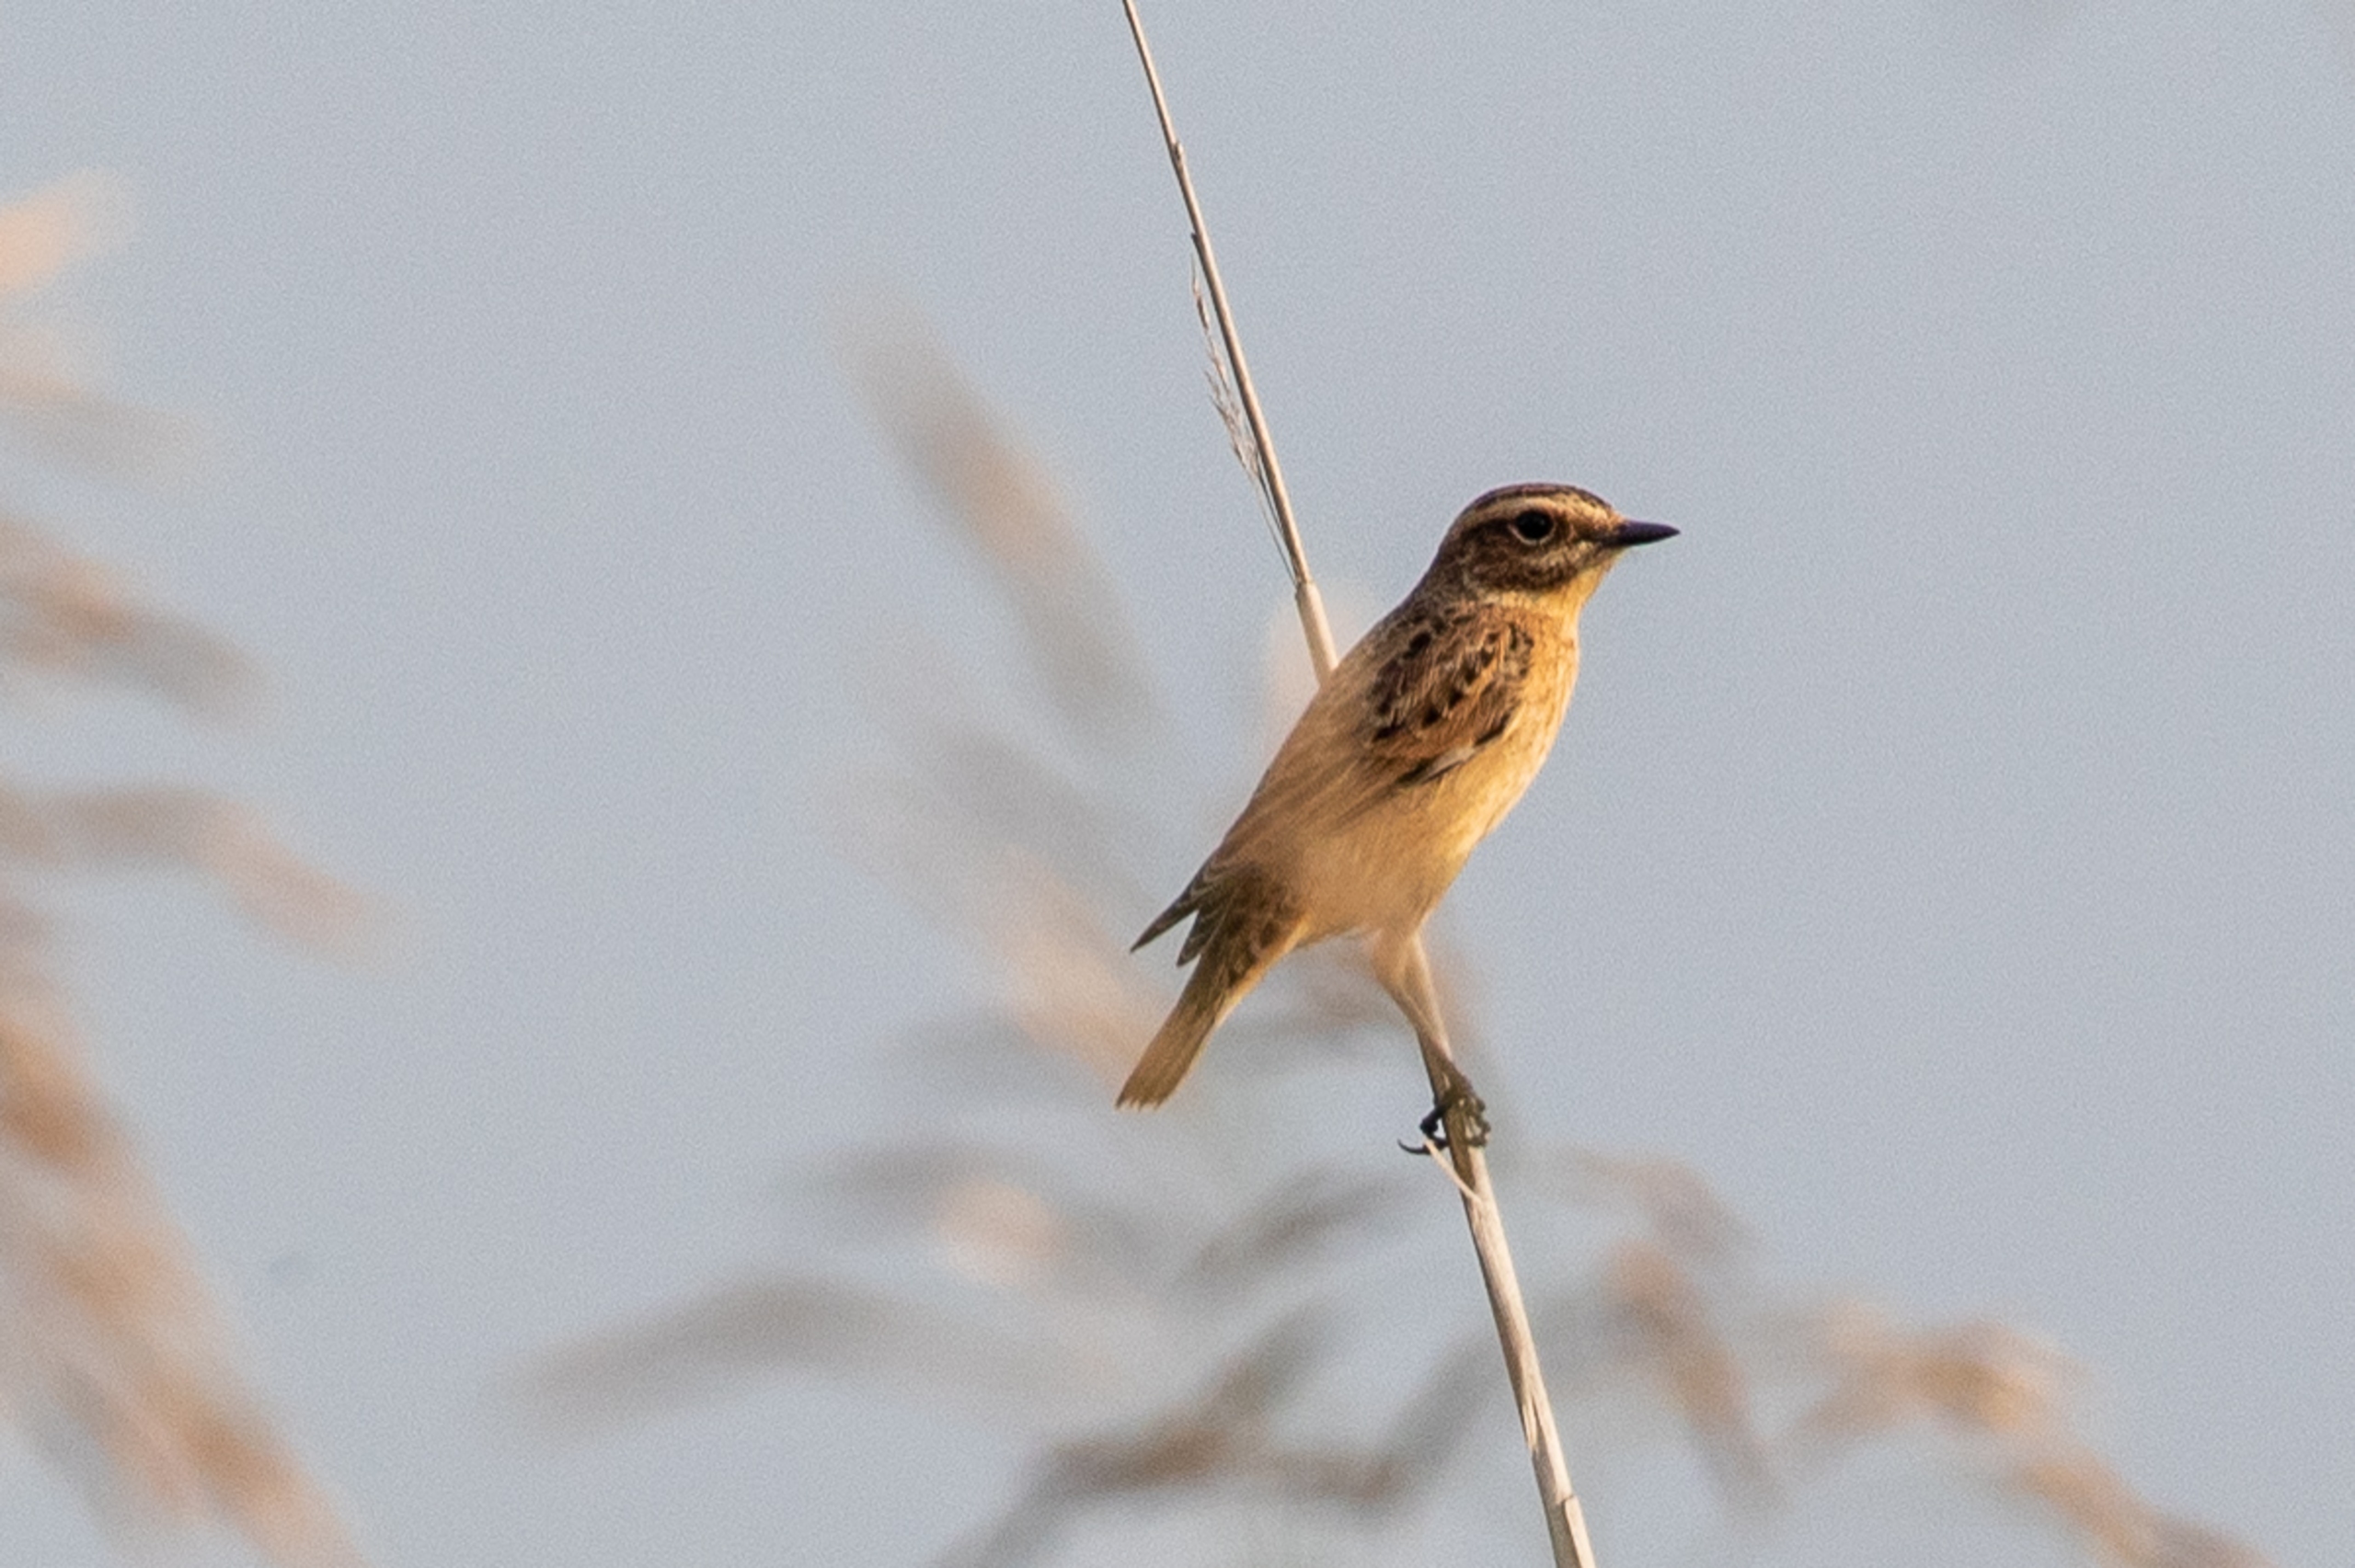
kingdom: Animalia
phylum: Chordata
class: Aves
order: Passeriformes
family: Muscicapidae
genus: Saxicola
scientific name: Saxicola rubetra
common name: Bynkefugl
